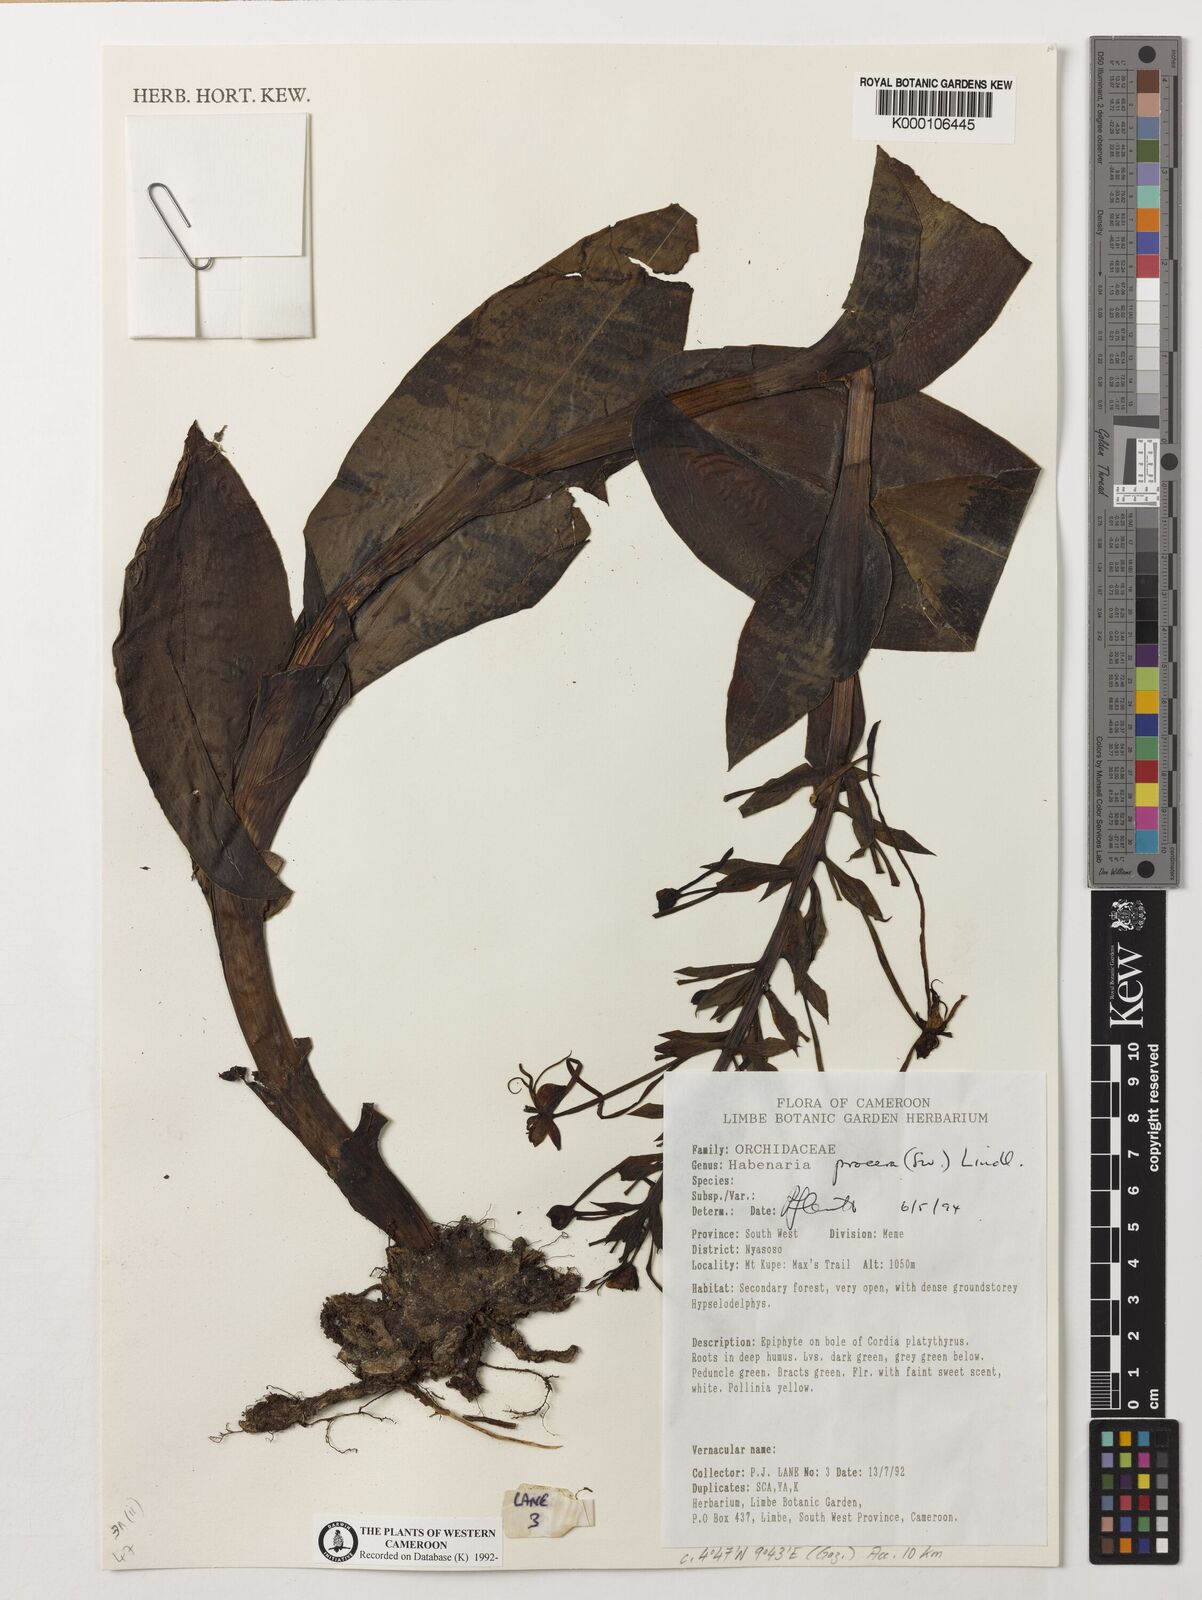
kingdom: Plantae
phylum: Tracheophyta
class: Liliopsida
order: Asparagales
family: Orchidaceae
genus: Habenaria
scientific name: Habenaria procera
